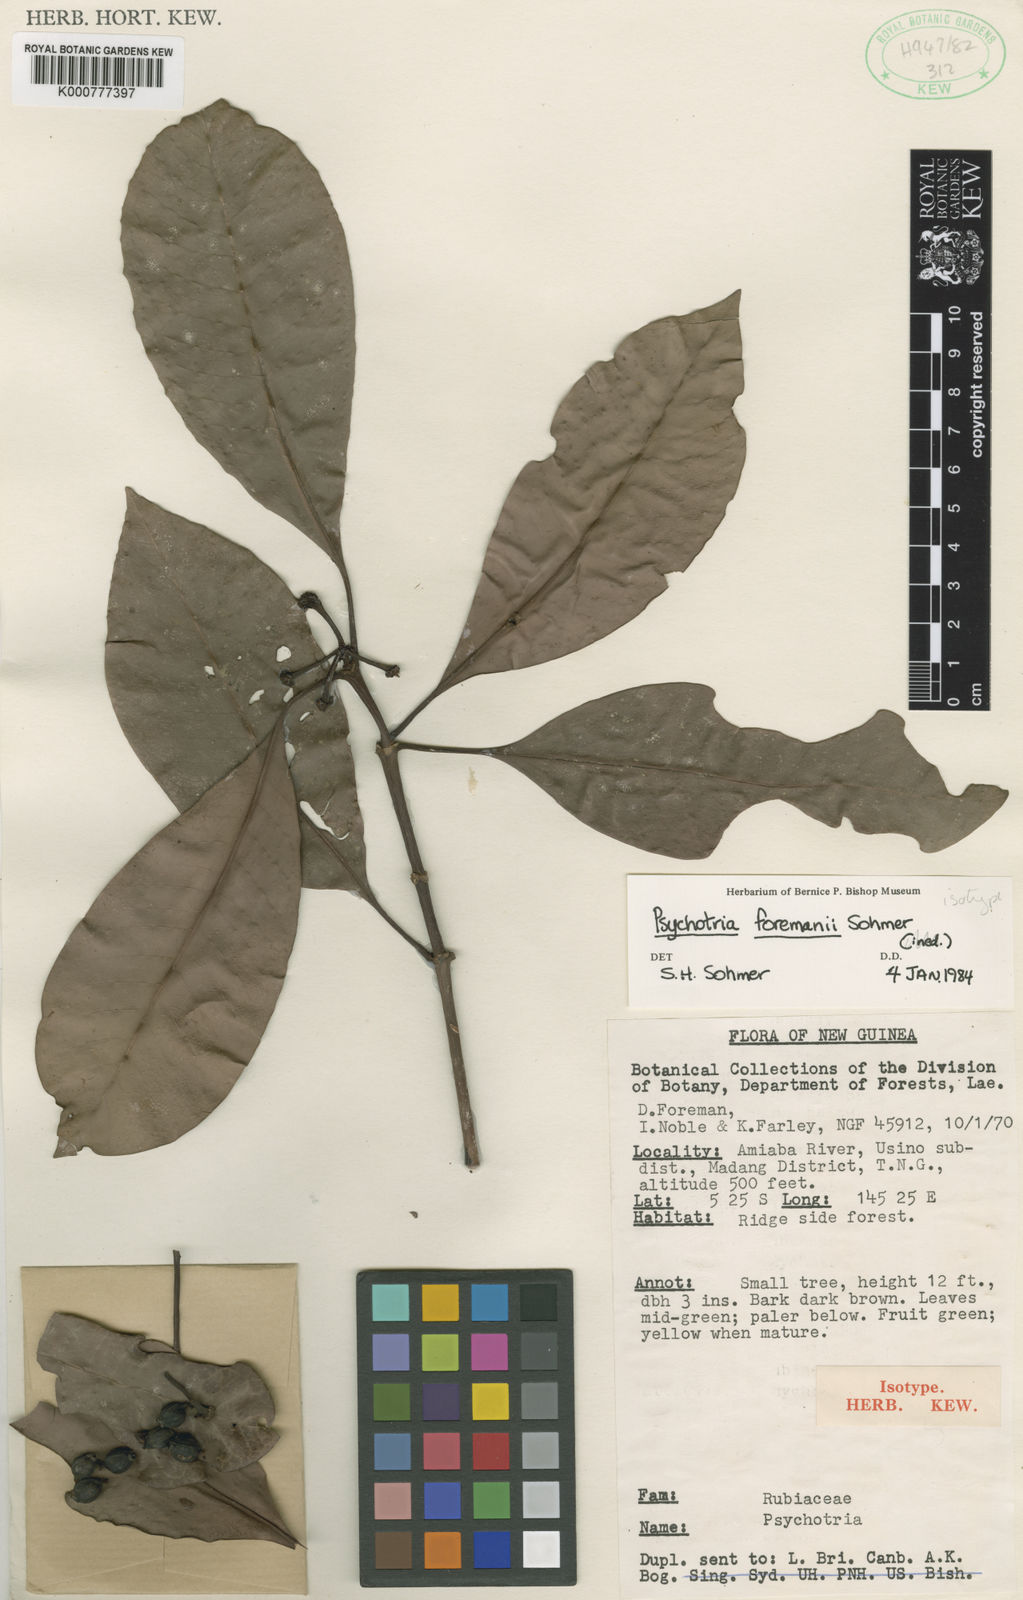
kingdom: Plantae
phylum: Tracheophyta
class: Magnoliopsida
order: Gentianales
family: Rubiaceae
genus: Psychotria
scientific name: Psychotria foremanii
